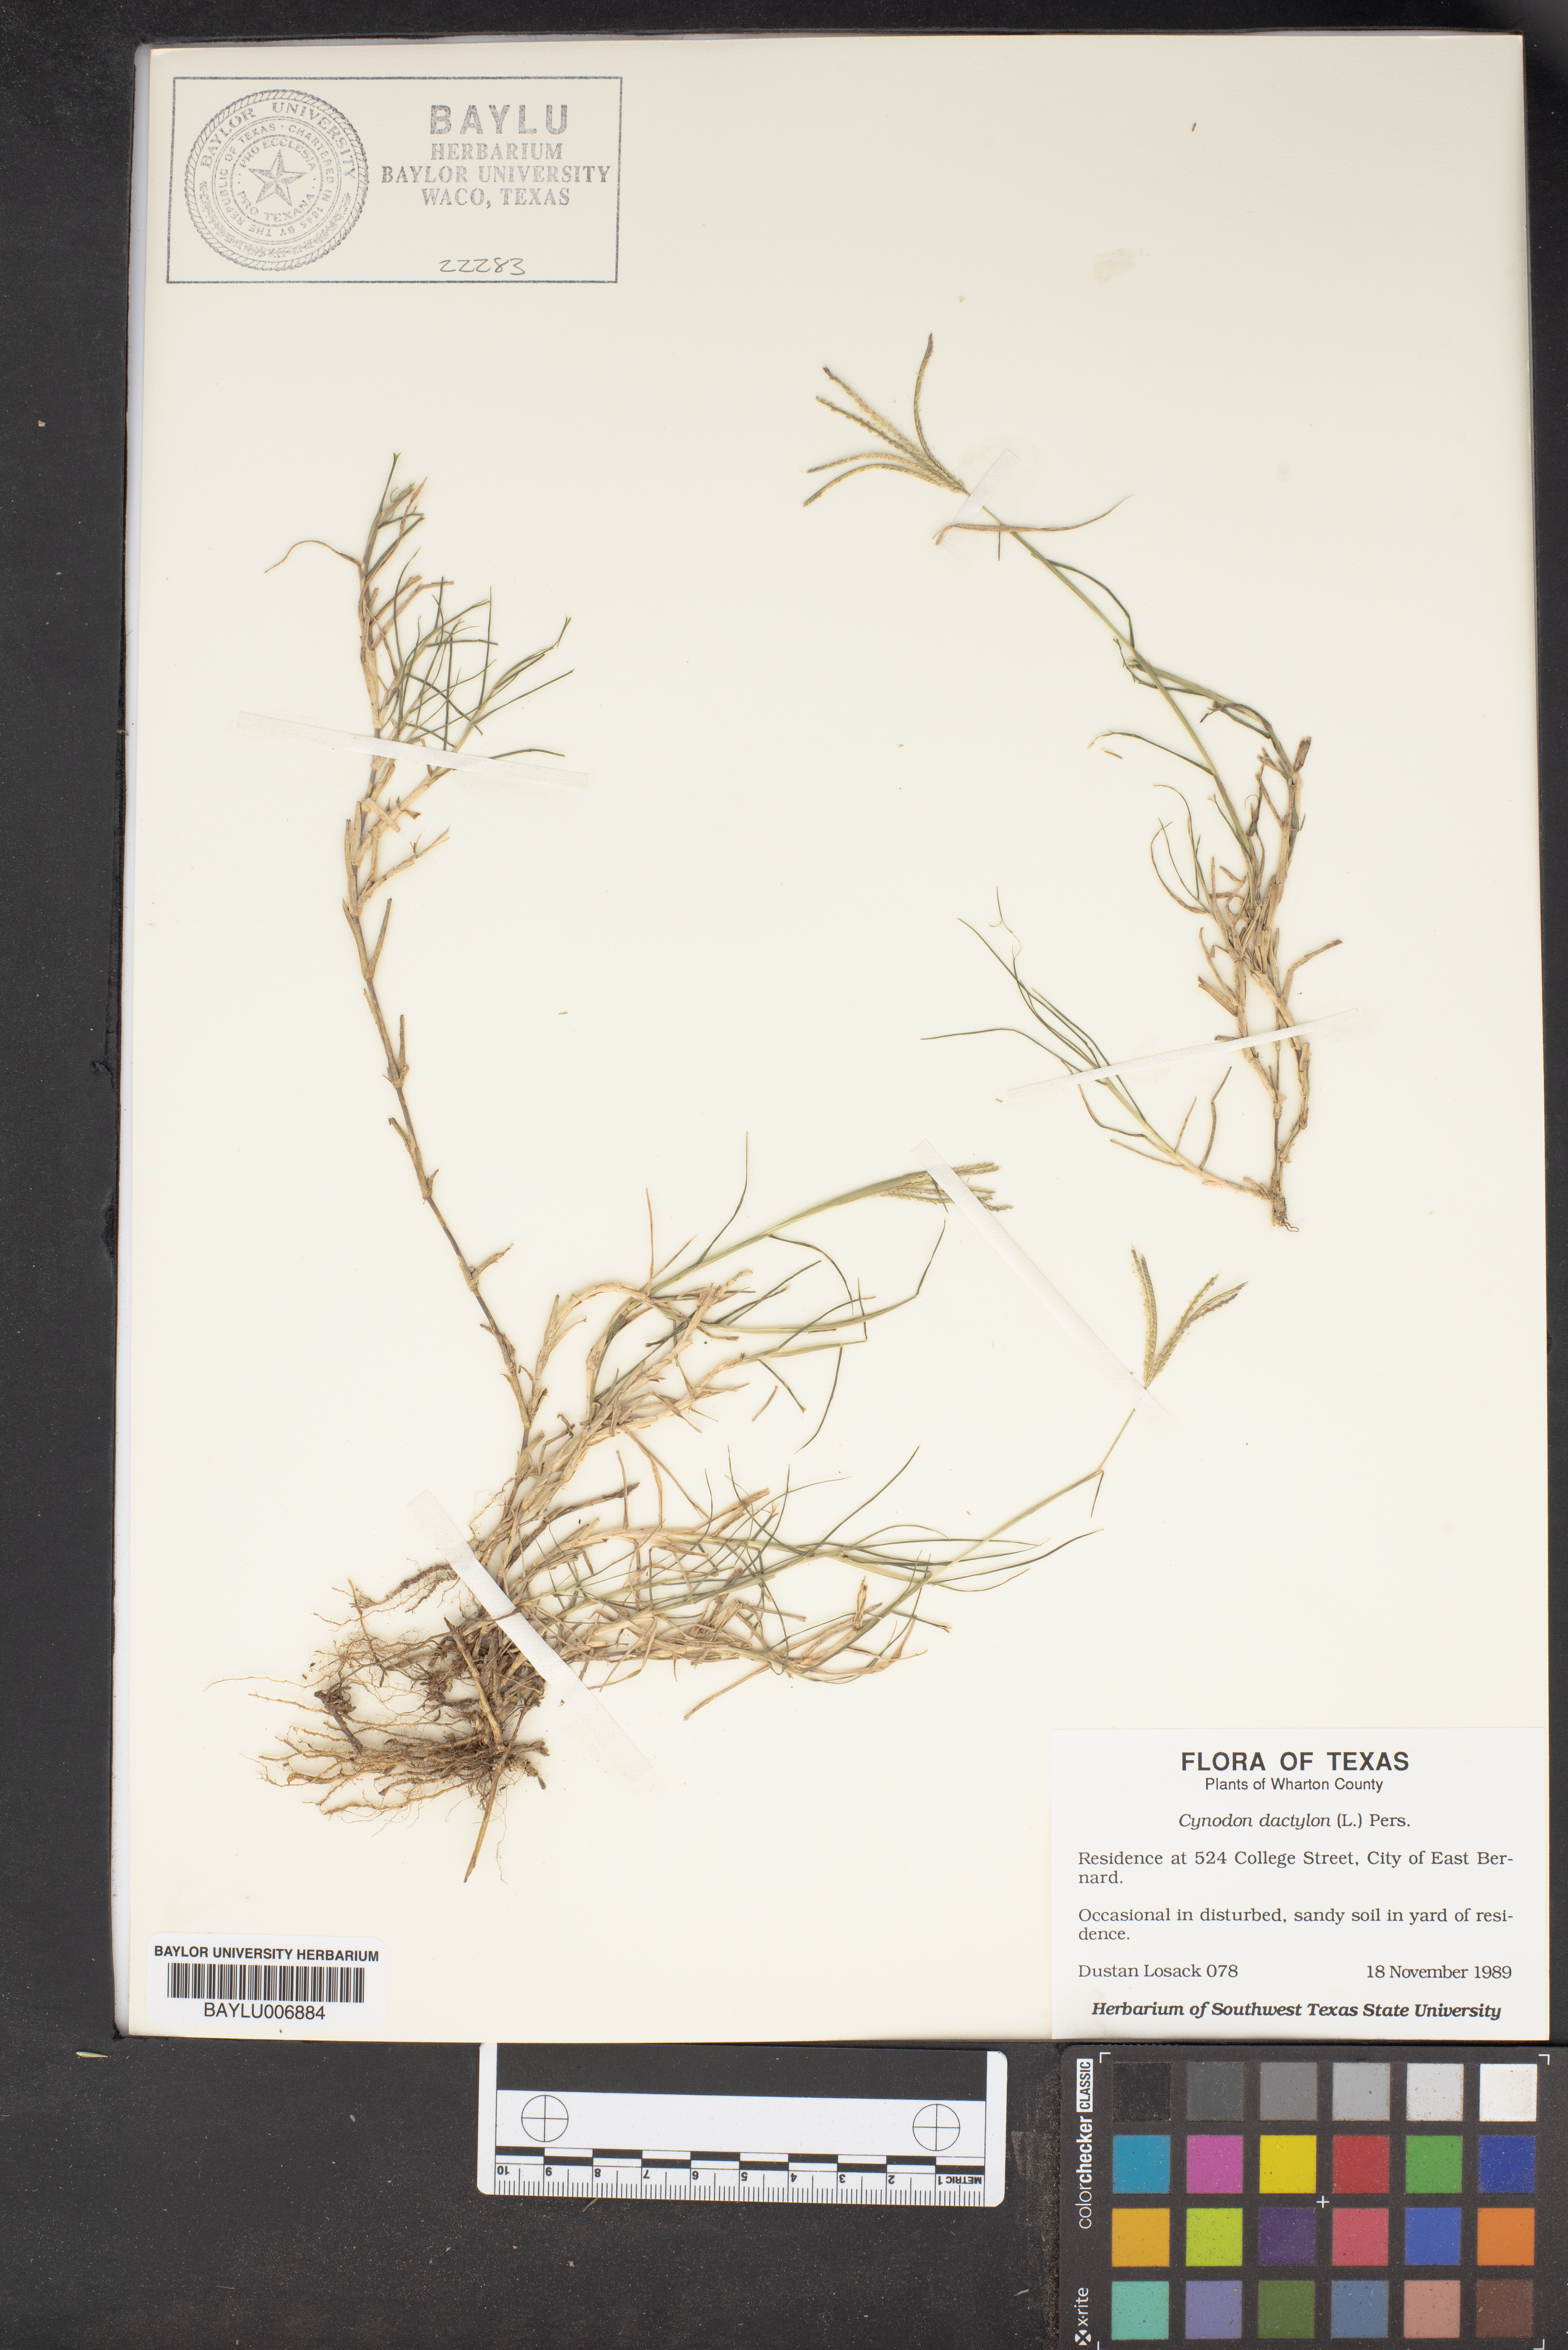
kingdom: Plantae
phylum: Tracheophyta
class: Liliopsida
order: Poales
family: Poaceae
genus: Cynodon
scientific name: Cynodon dactylon
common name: Bermuda grass
